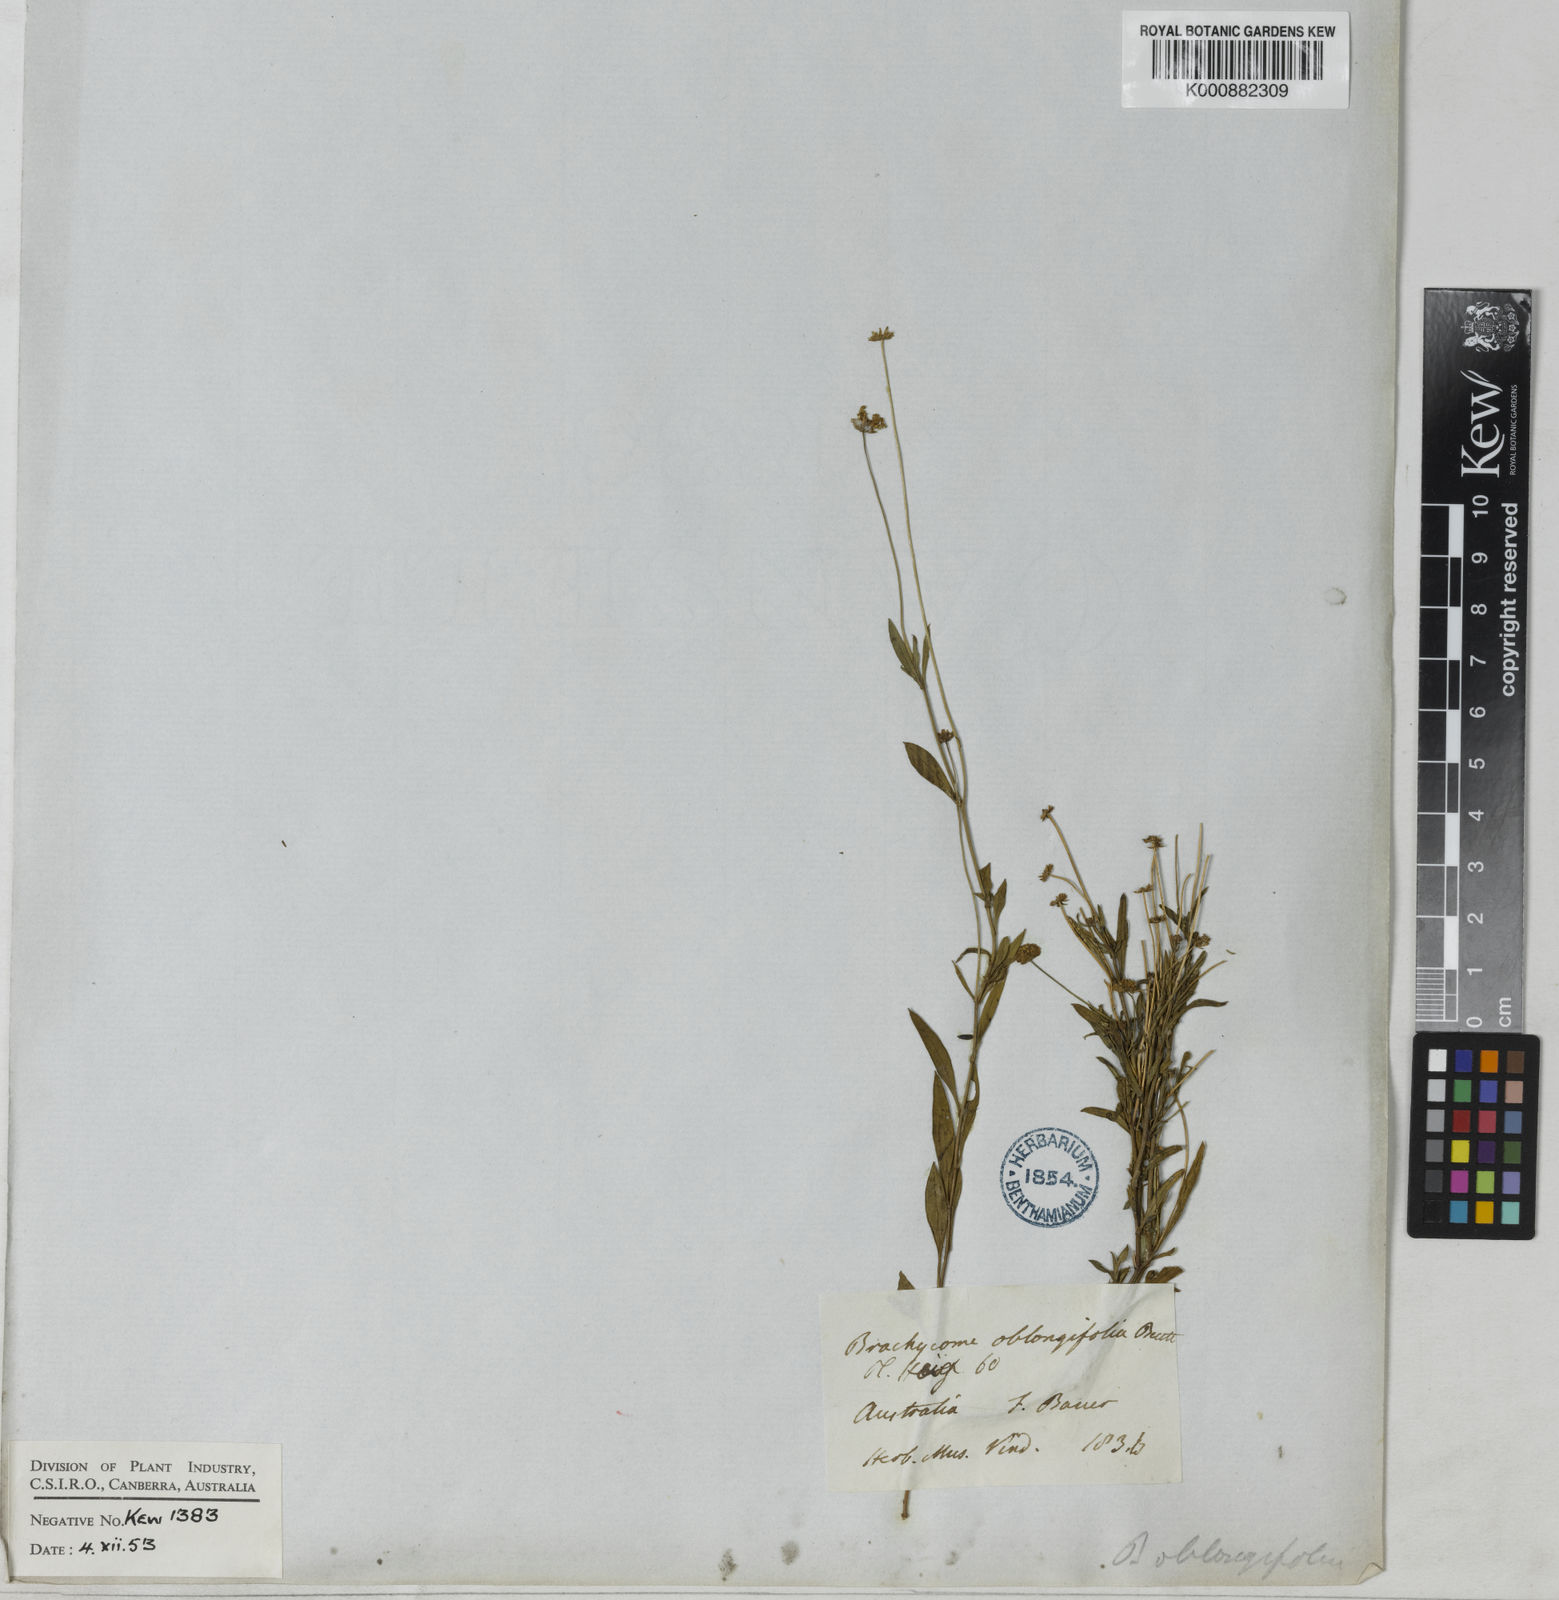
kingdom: Plantae
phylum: Tracheophyta
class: Magnoliopsida
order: Asterales
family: Asteraceae
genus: Brachyscome
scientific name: Brachyscome aculeata
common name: Hill daisy
